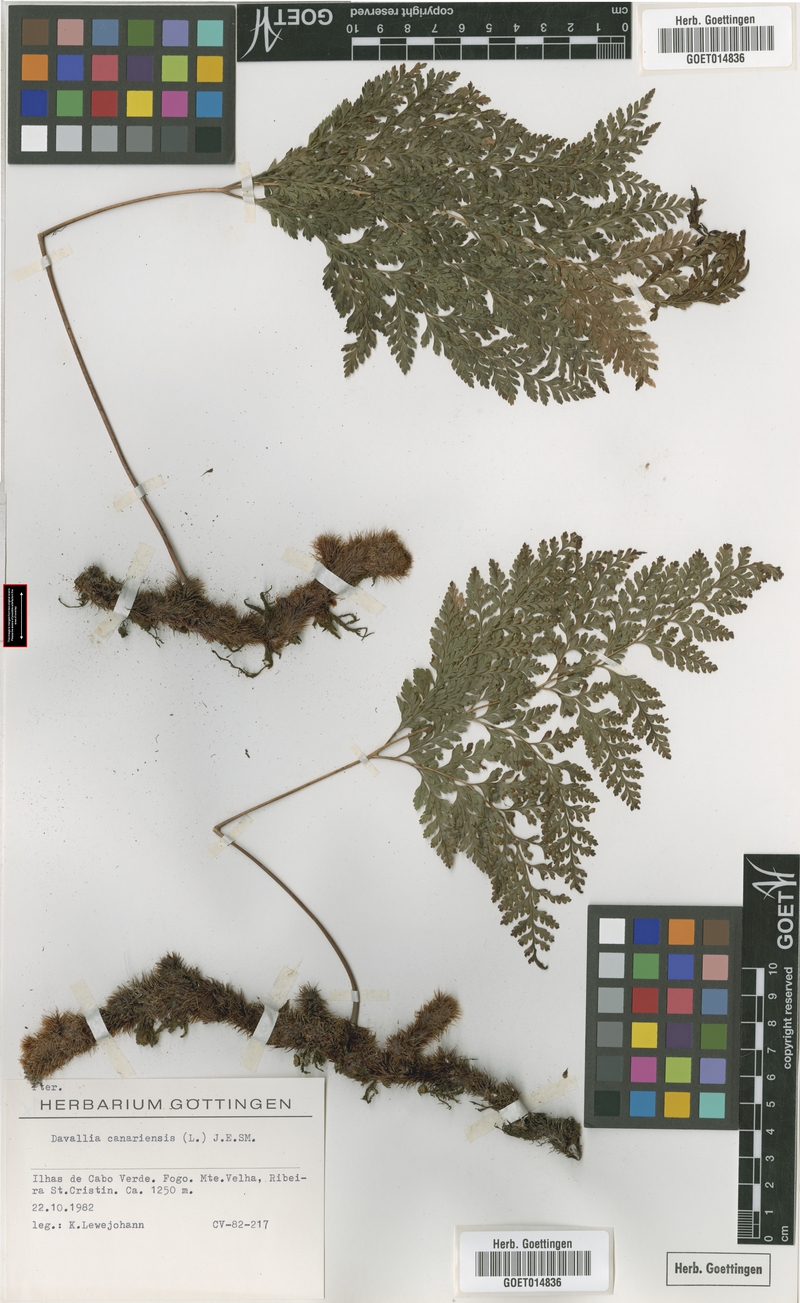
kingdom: Plantae
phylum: Tracheophyta
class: Polypodiopsida
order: Polypodiales
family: Davalliaceae
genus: Davallia
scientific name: Davallia canariensis
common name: Hare's-foot fern
